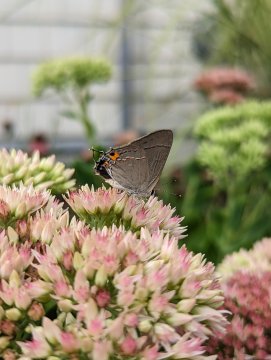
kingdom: Animalia
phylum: Arthropoda
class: Insecta
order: Lepidoptera
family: Lycaenidae
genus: Strymon
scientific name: Strymon melinus
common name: Gray Hairstreak
